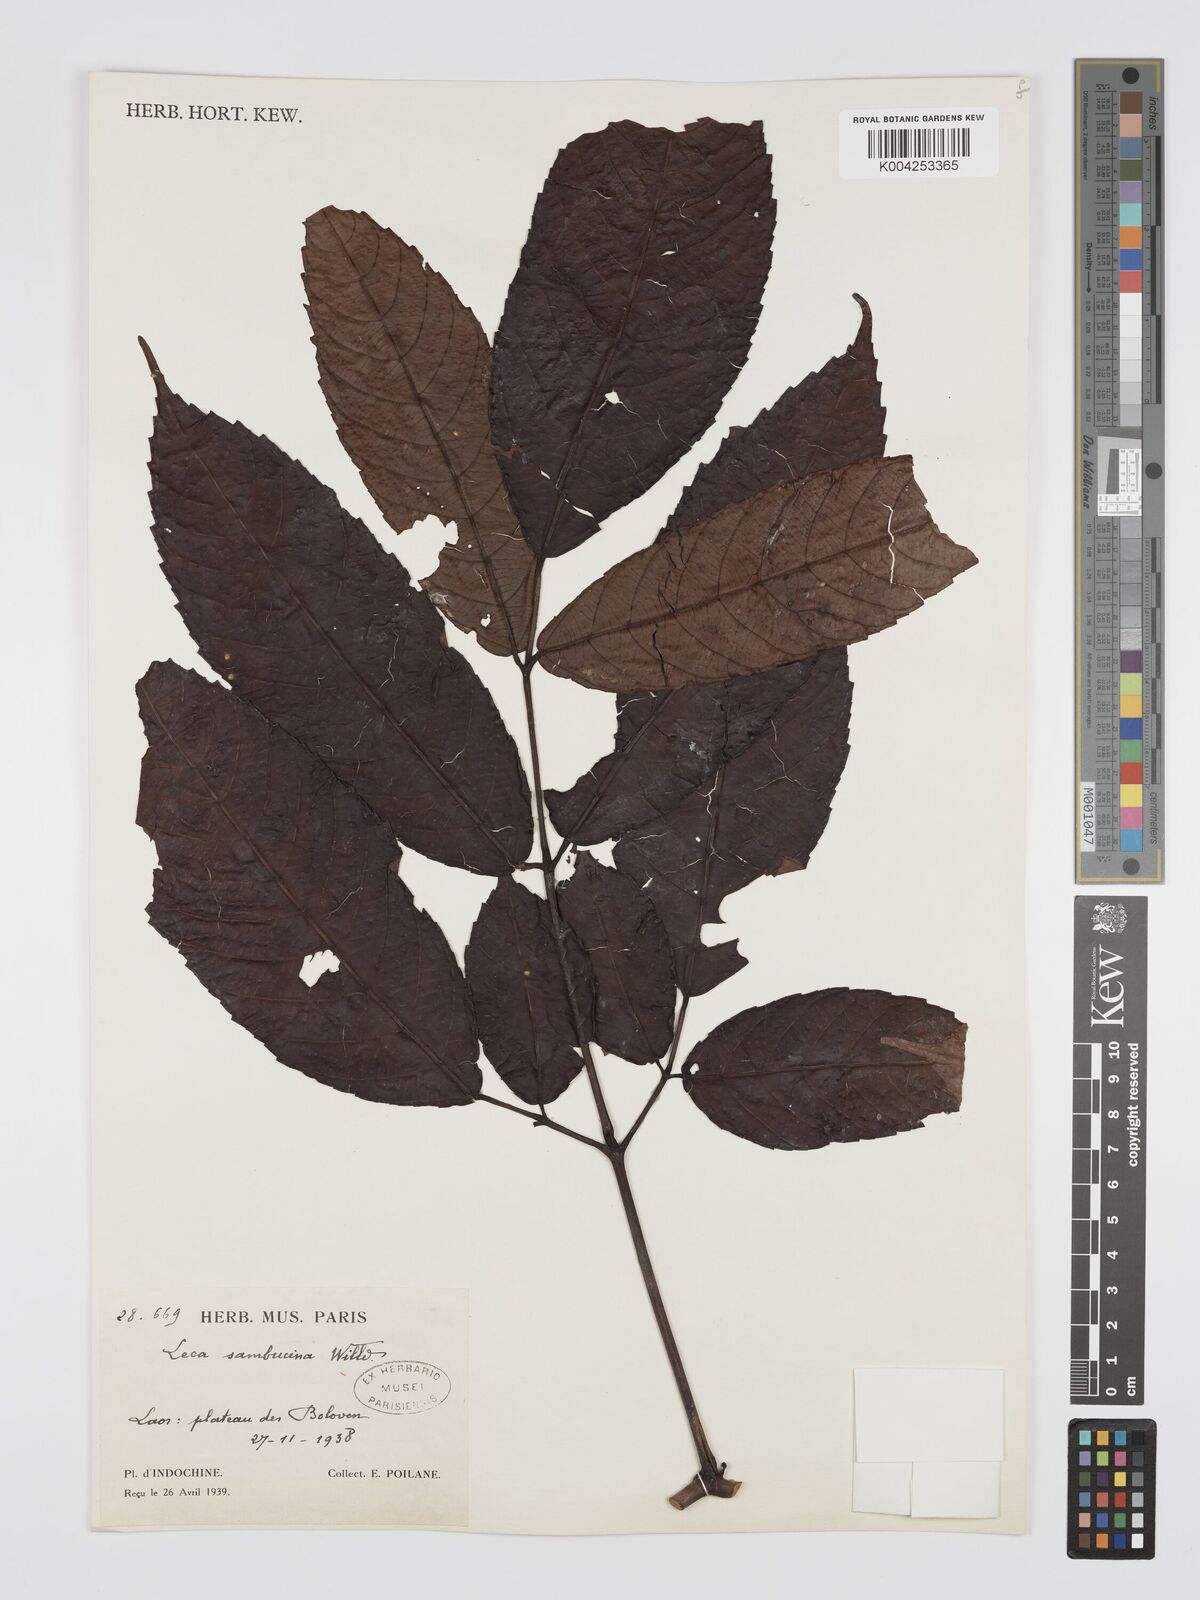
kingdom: Plantae
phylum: Tracheophyta
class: Magnoliopsida
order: Vitales
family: Vitaceae
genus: Leea
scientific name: Leea
